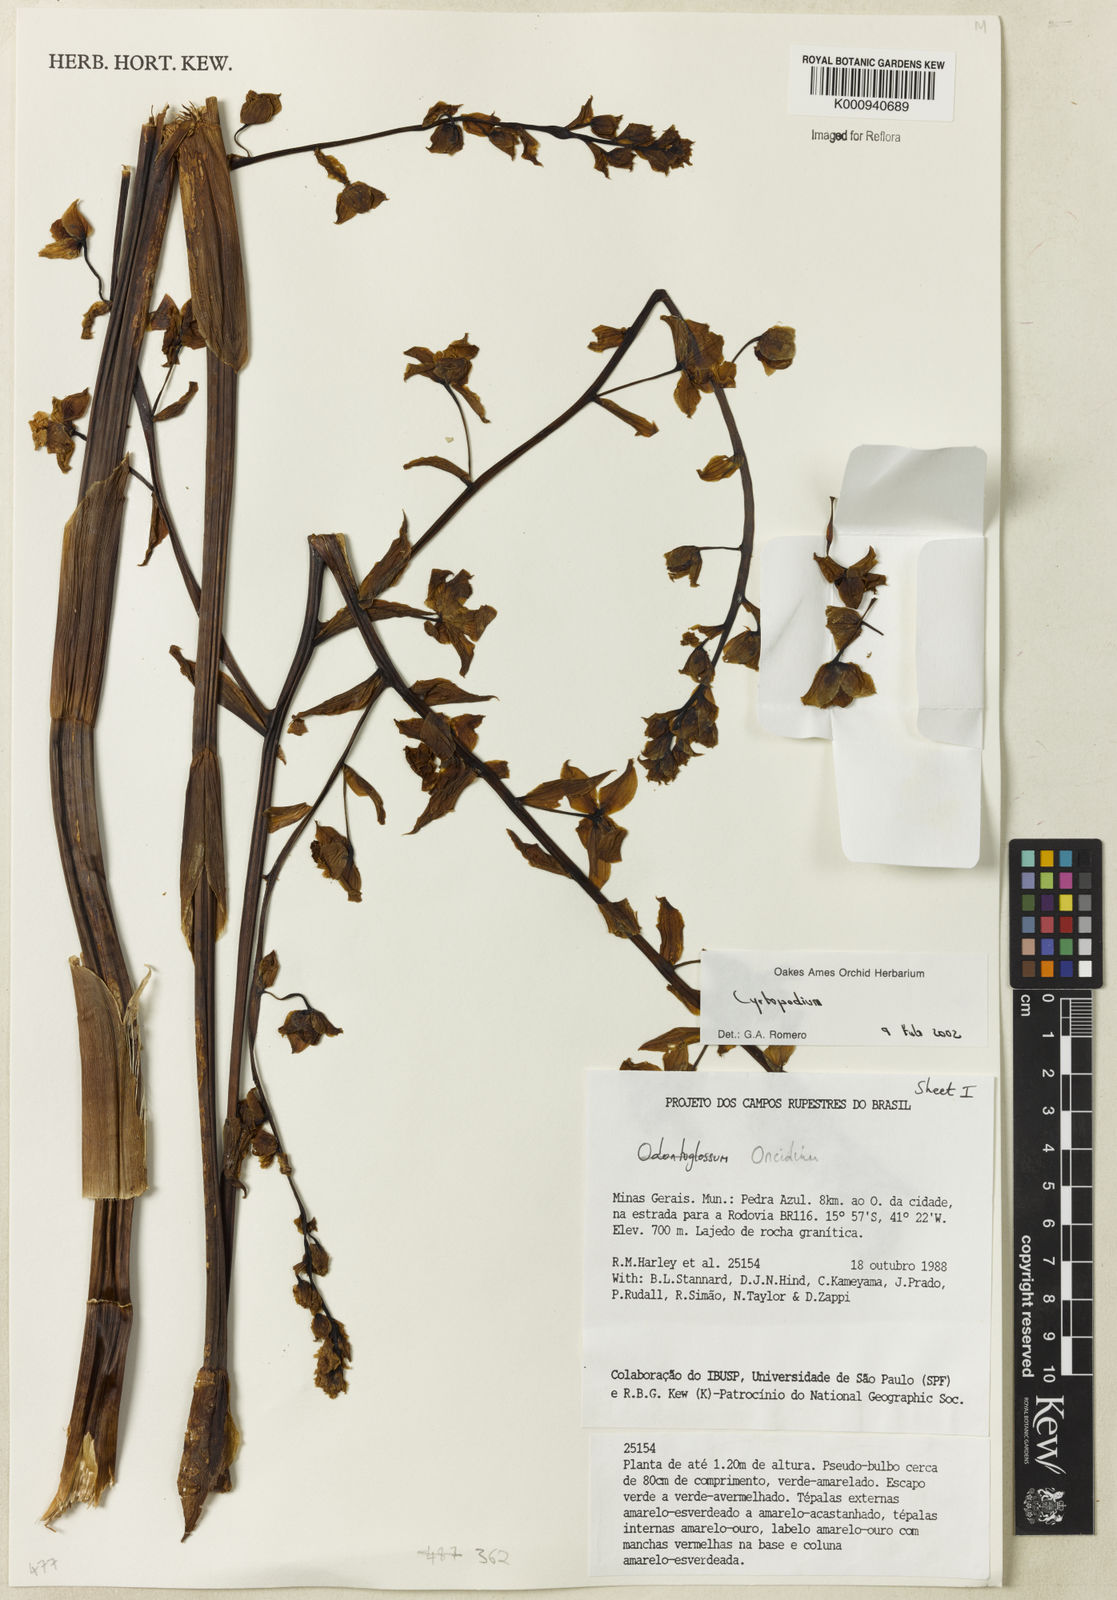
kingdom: Plantae
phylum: Tracheophyta
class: Liliopsida
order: Asparagales
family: Orchidaceae
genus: Cyrtopodium
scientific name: Cyrtopodium
